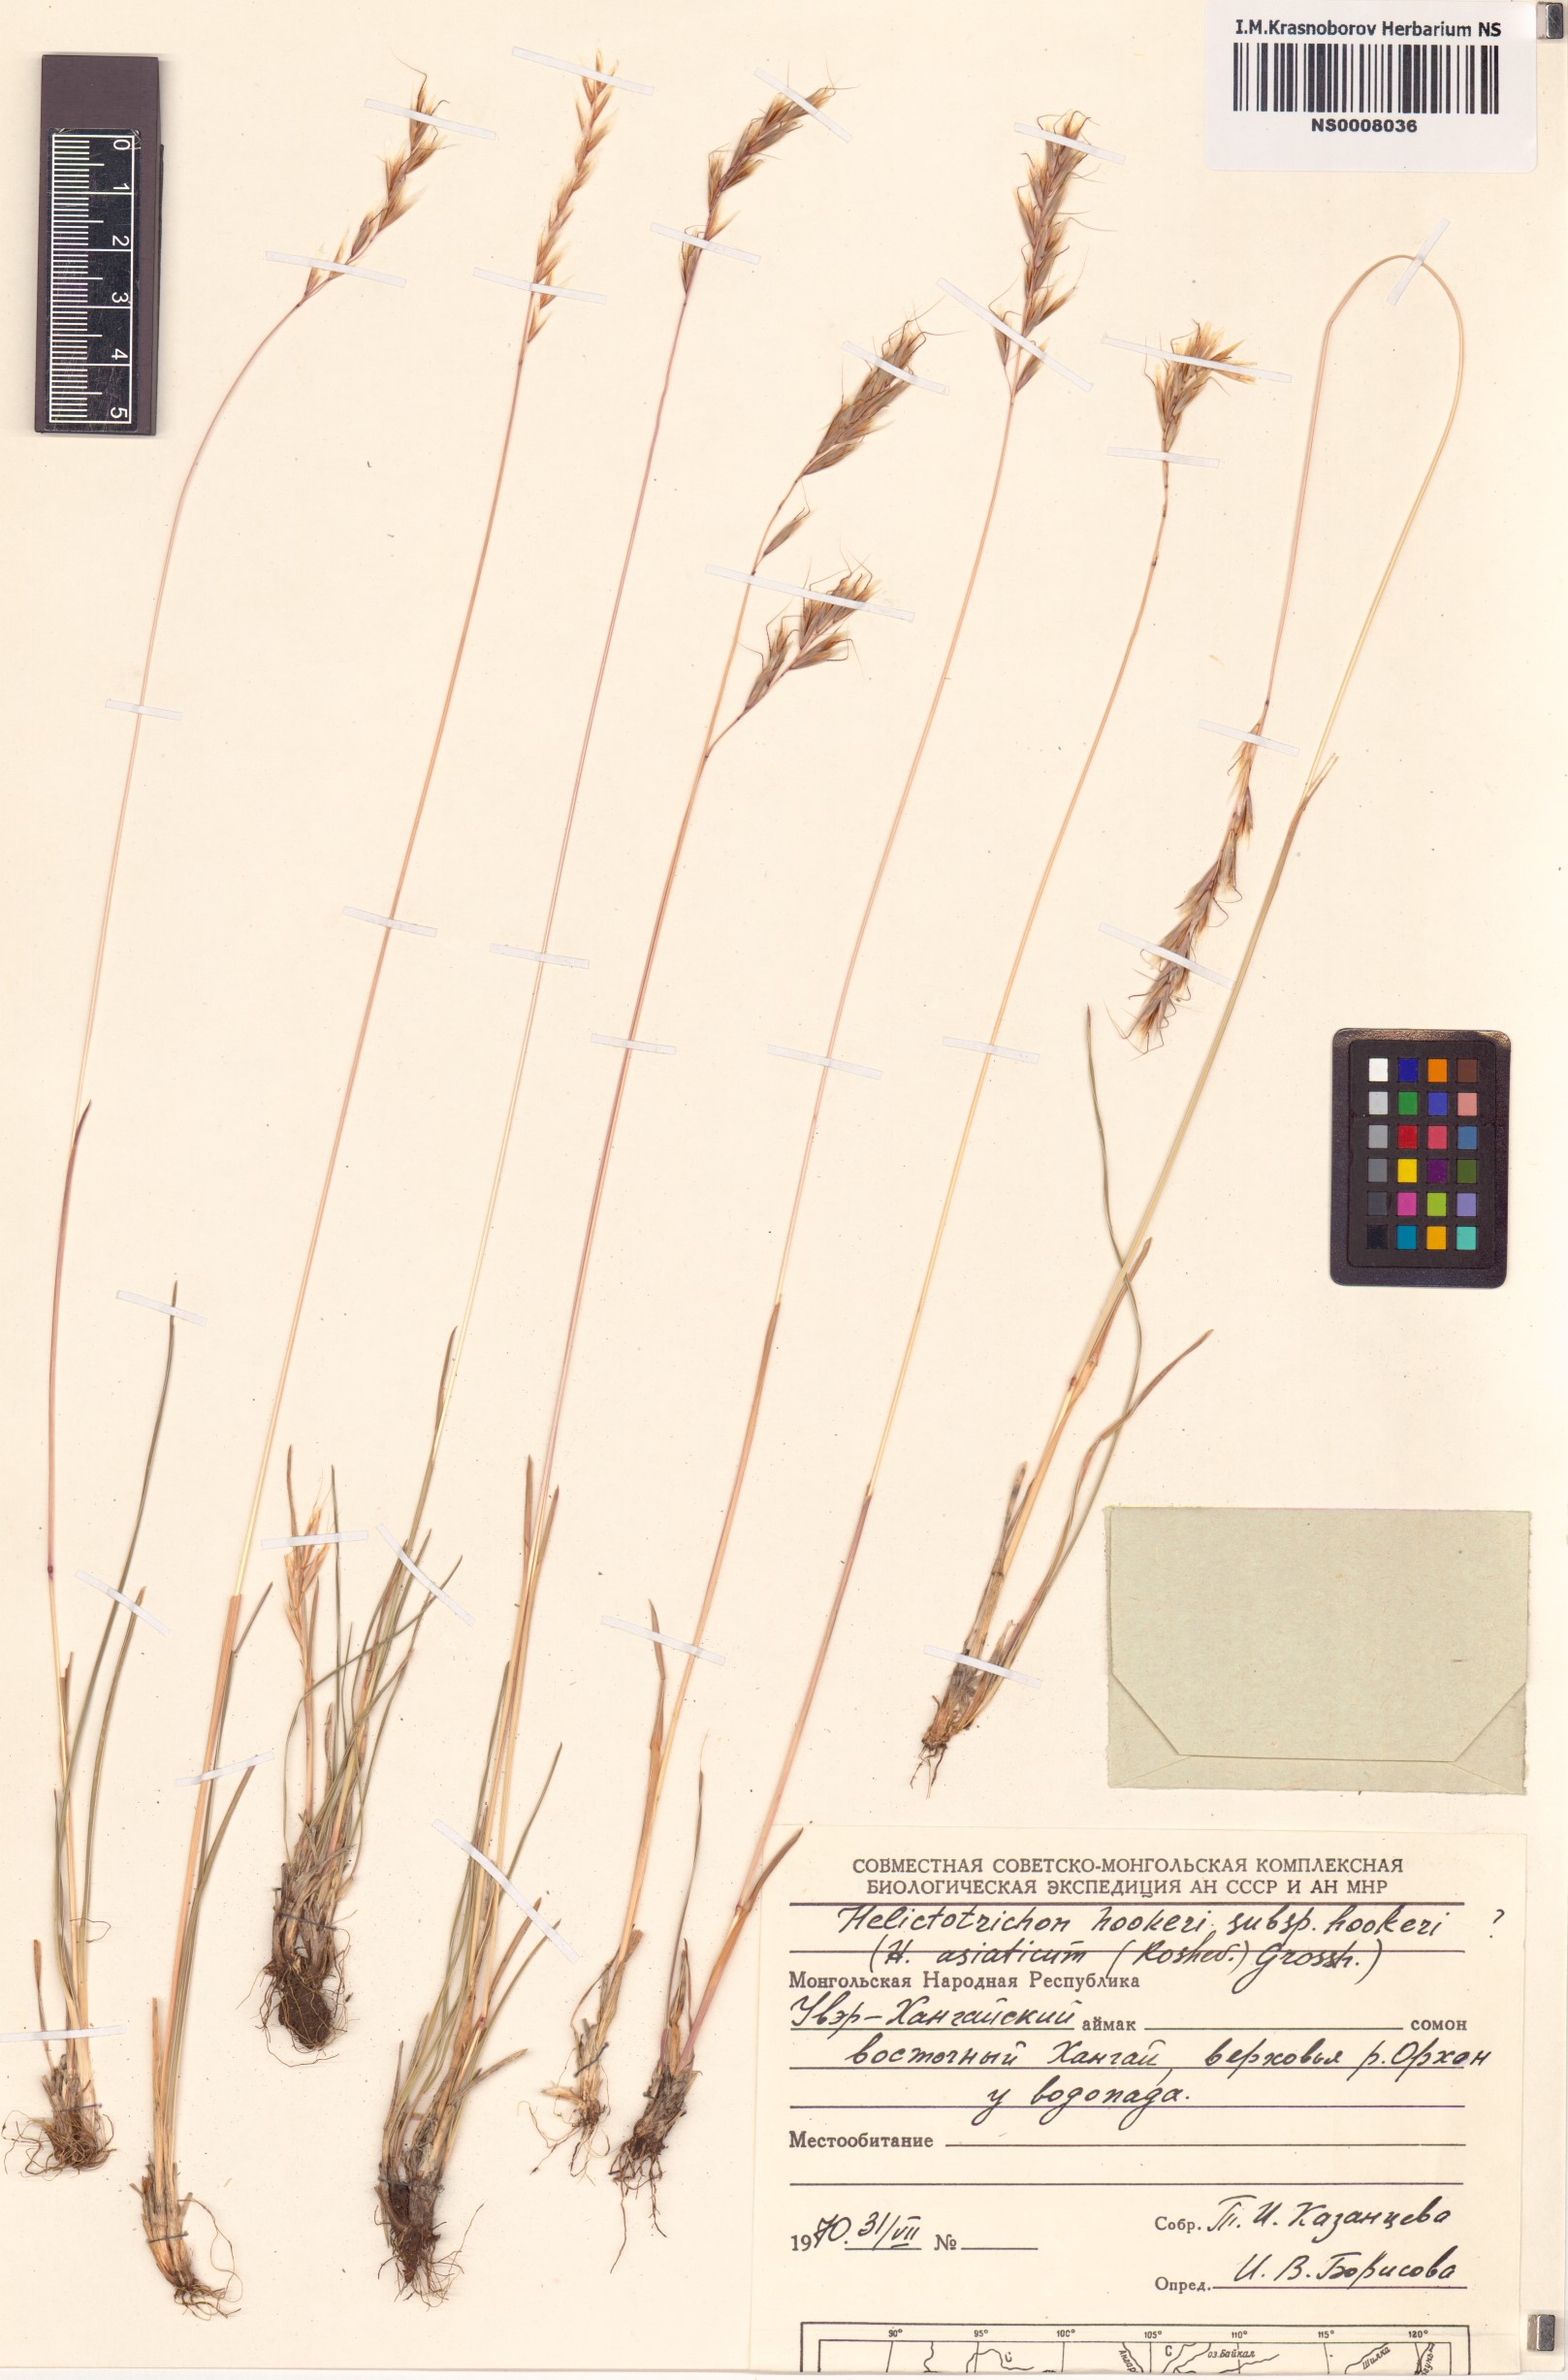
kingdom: Plantae
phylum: Tracheophyta
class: Liliopsida
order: Poales
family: Poaceae
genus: Helictochloa
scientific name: Helictochloa hookeri
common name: Hooker's alpine oatgrass
